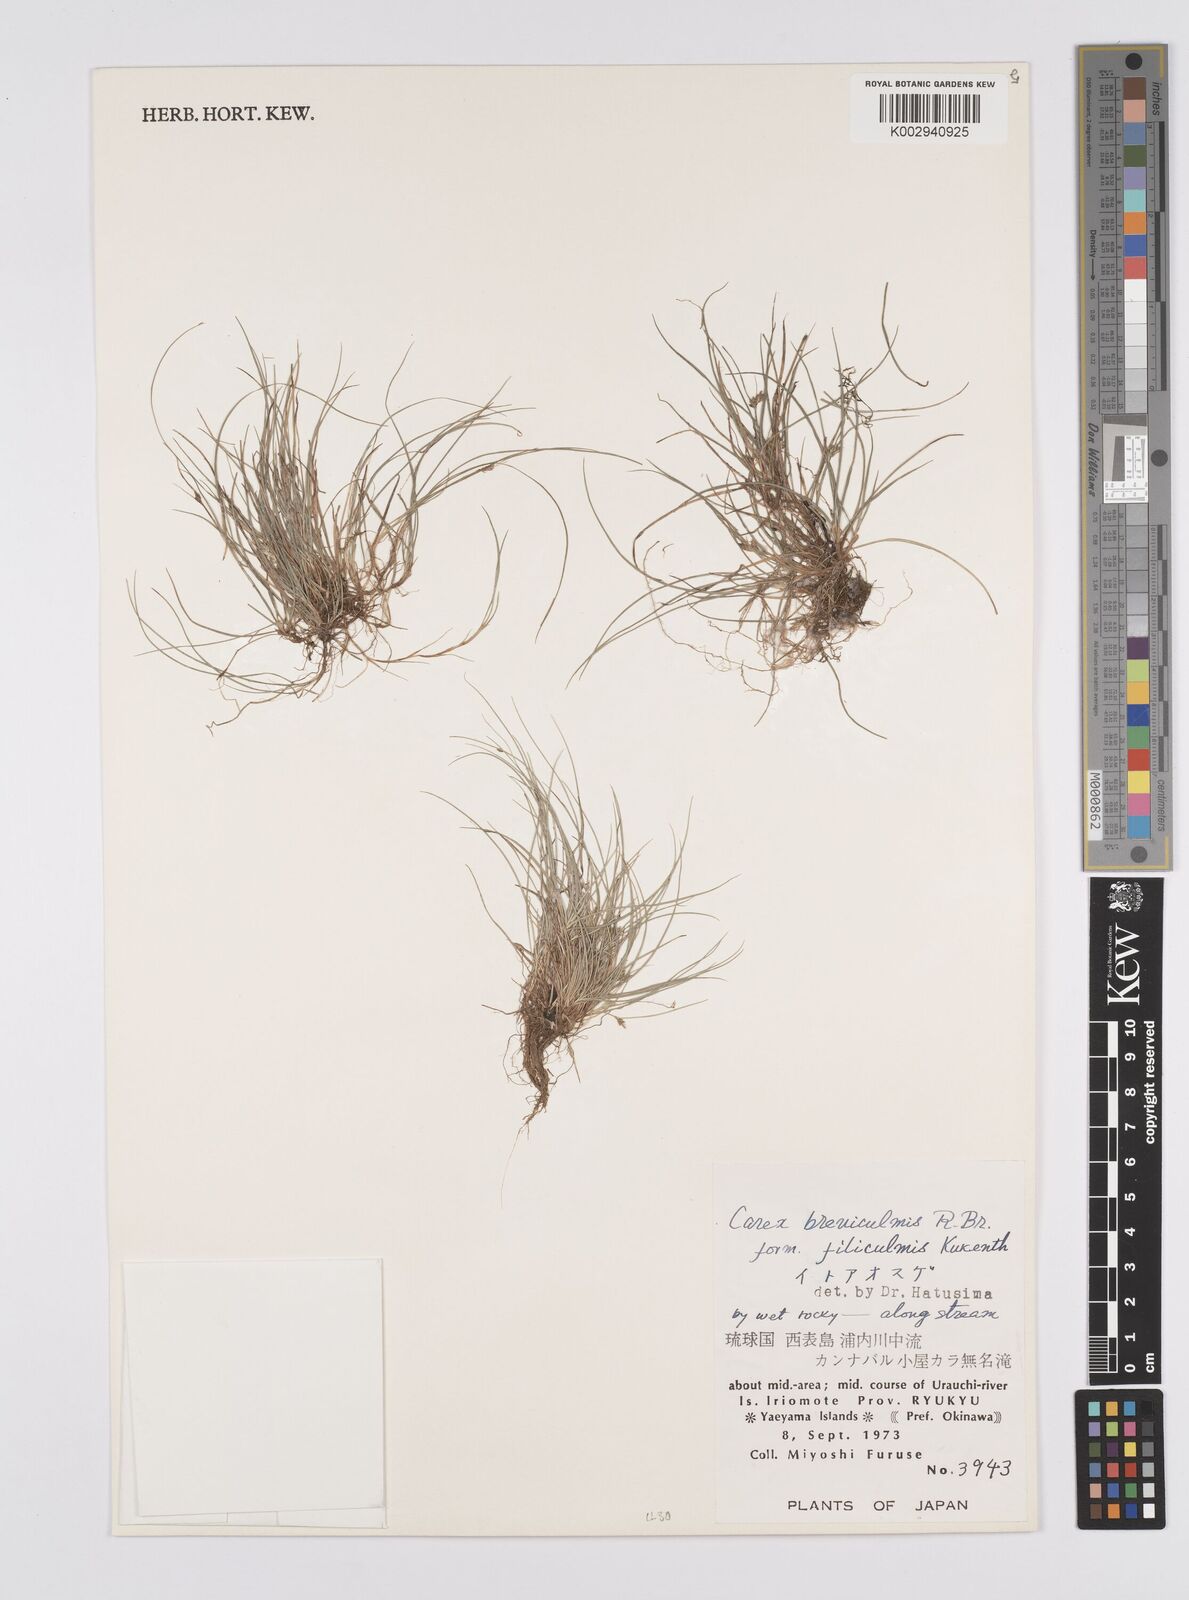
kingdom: Plantae
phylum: Tracheophyta
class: Liliopsida
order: Poales
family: Cyperaceae
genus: Carex
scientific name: Carex breviculmis
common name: Asian shortstem sedge
